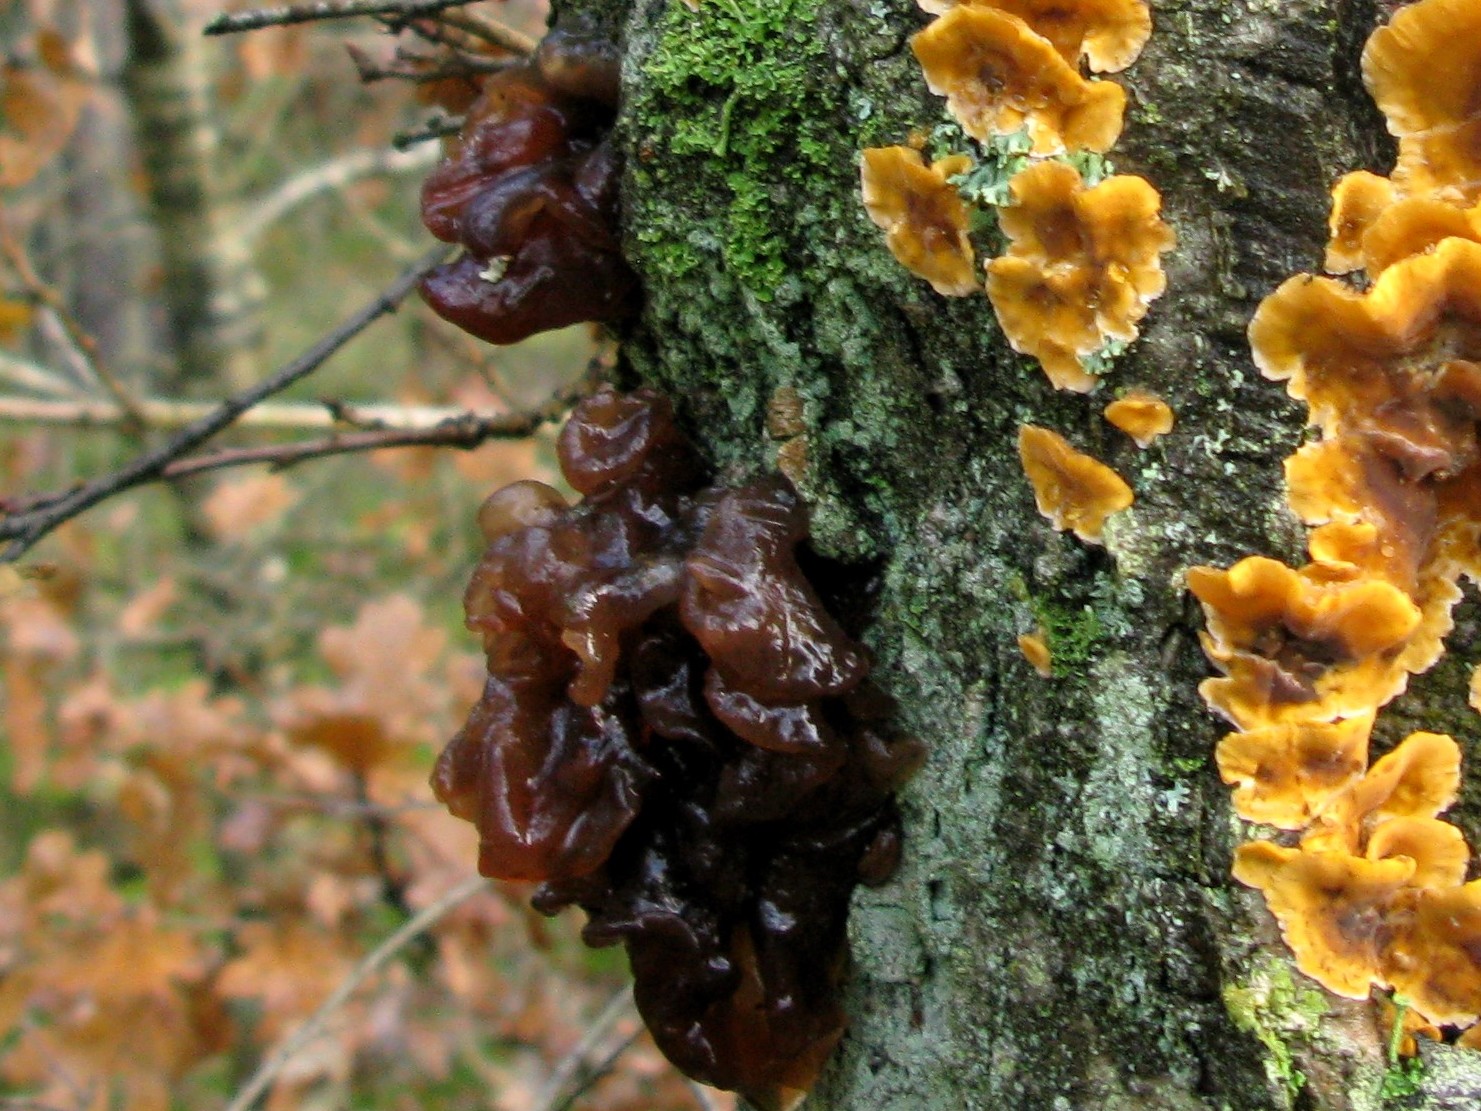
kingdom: Fungi
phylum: Basidiomycota
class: Tremellomycetes
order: Tremellales
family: Tremellaceae
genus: Phaeotremella
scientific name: Phaeotremella frondosa
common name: kæmpe-bævresvamp
